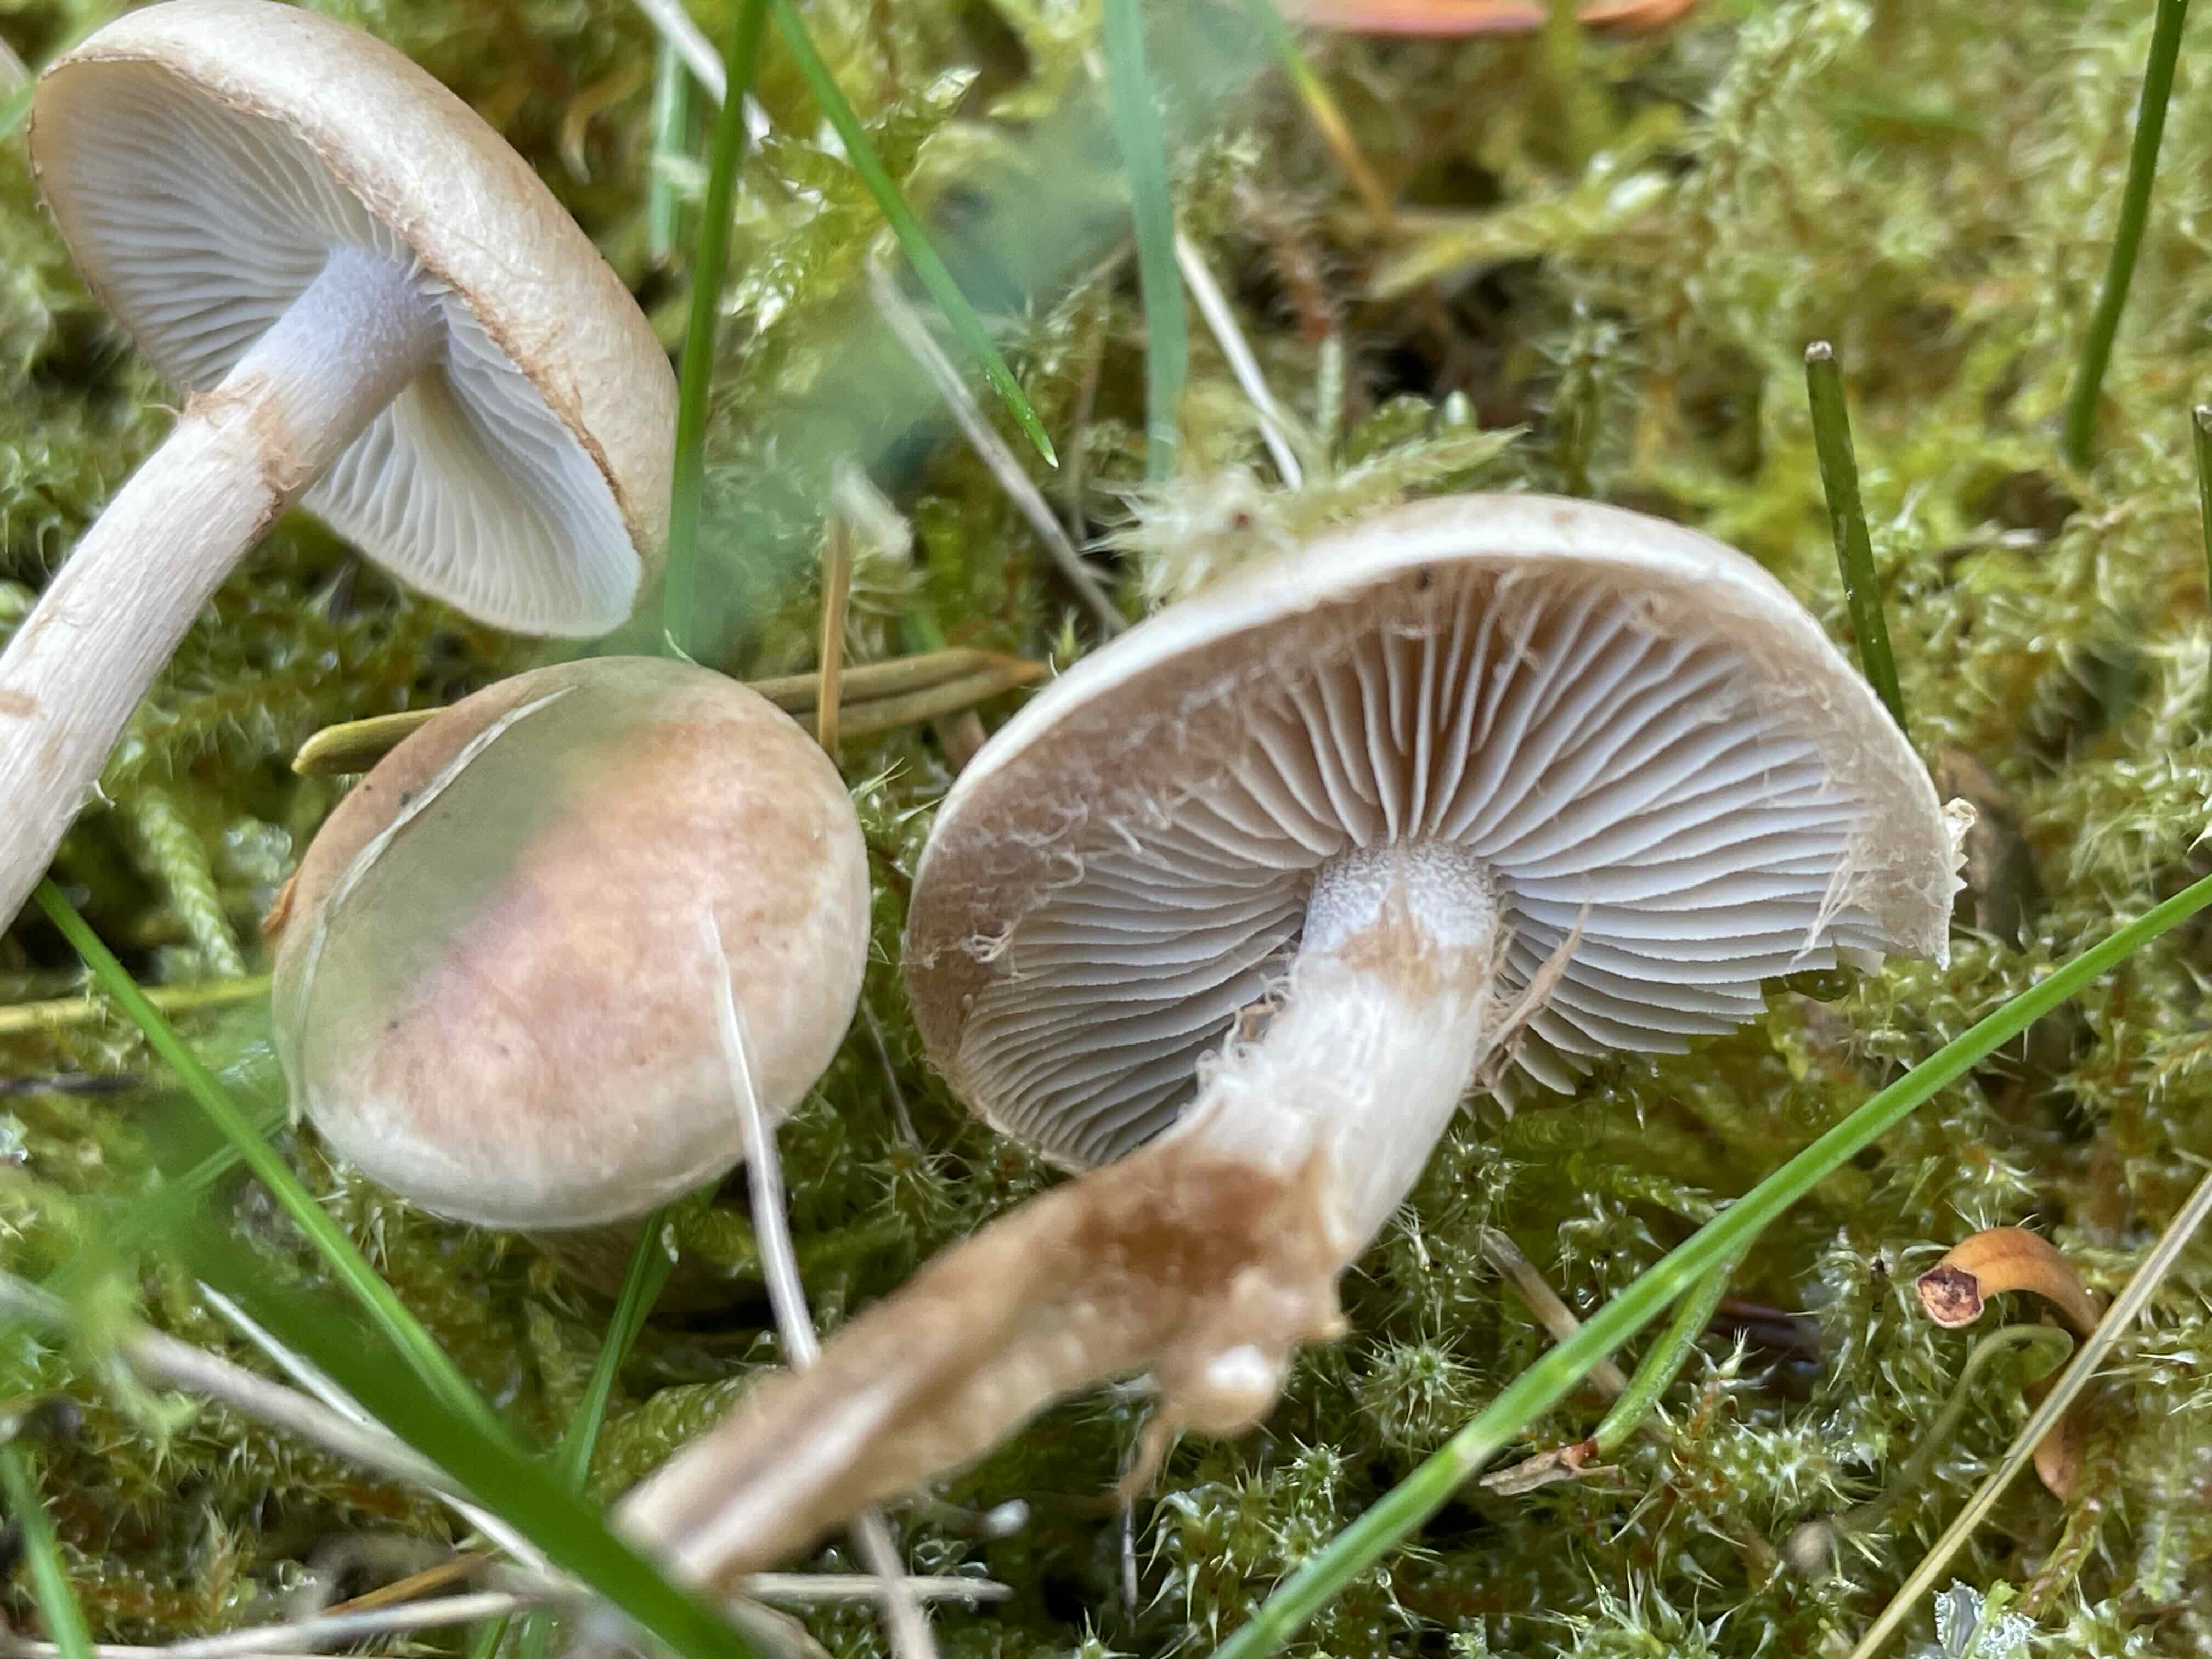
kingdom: Fungi
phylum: Basidiomycota
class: Agaricomycetes
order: Agaricales
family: Hymenogastraceae
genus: Hebeloma
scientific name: Hebeloma
